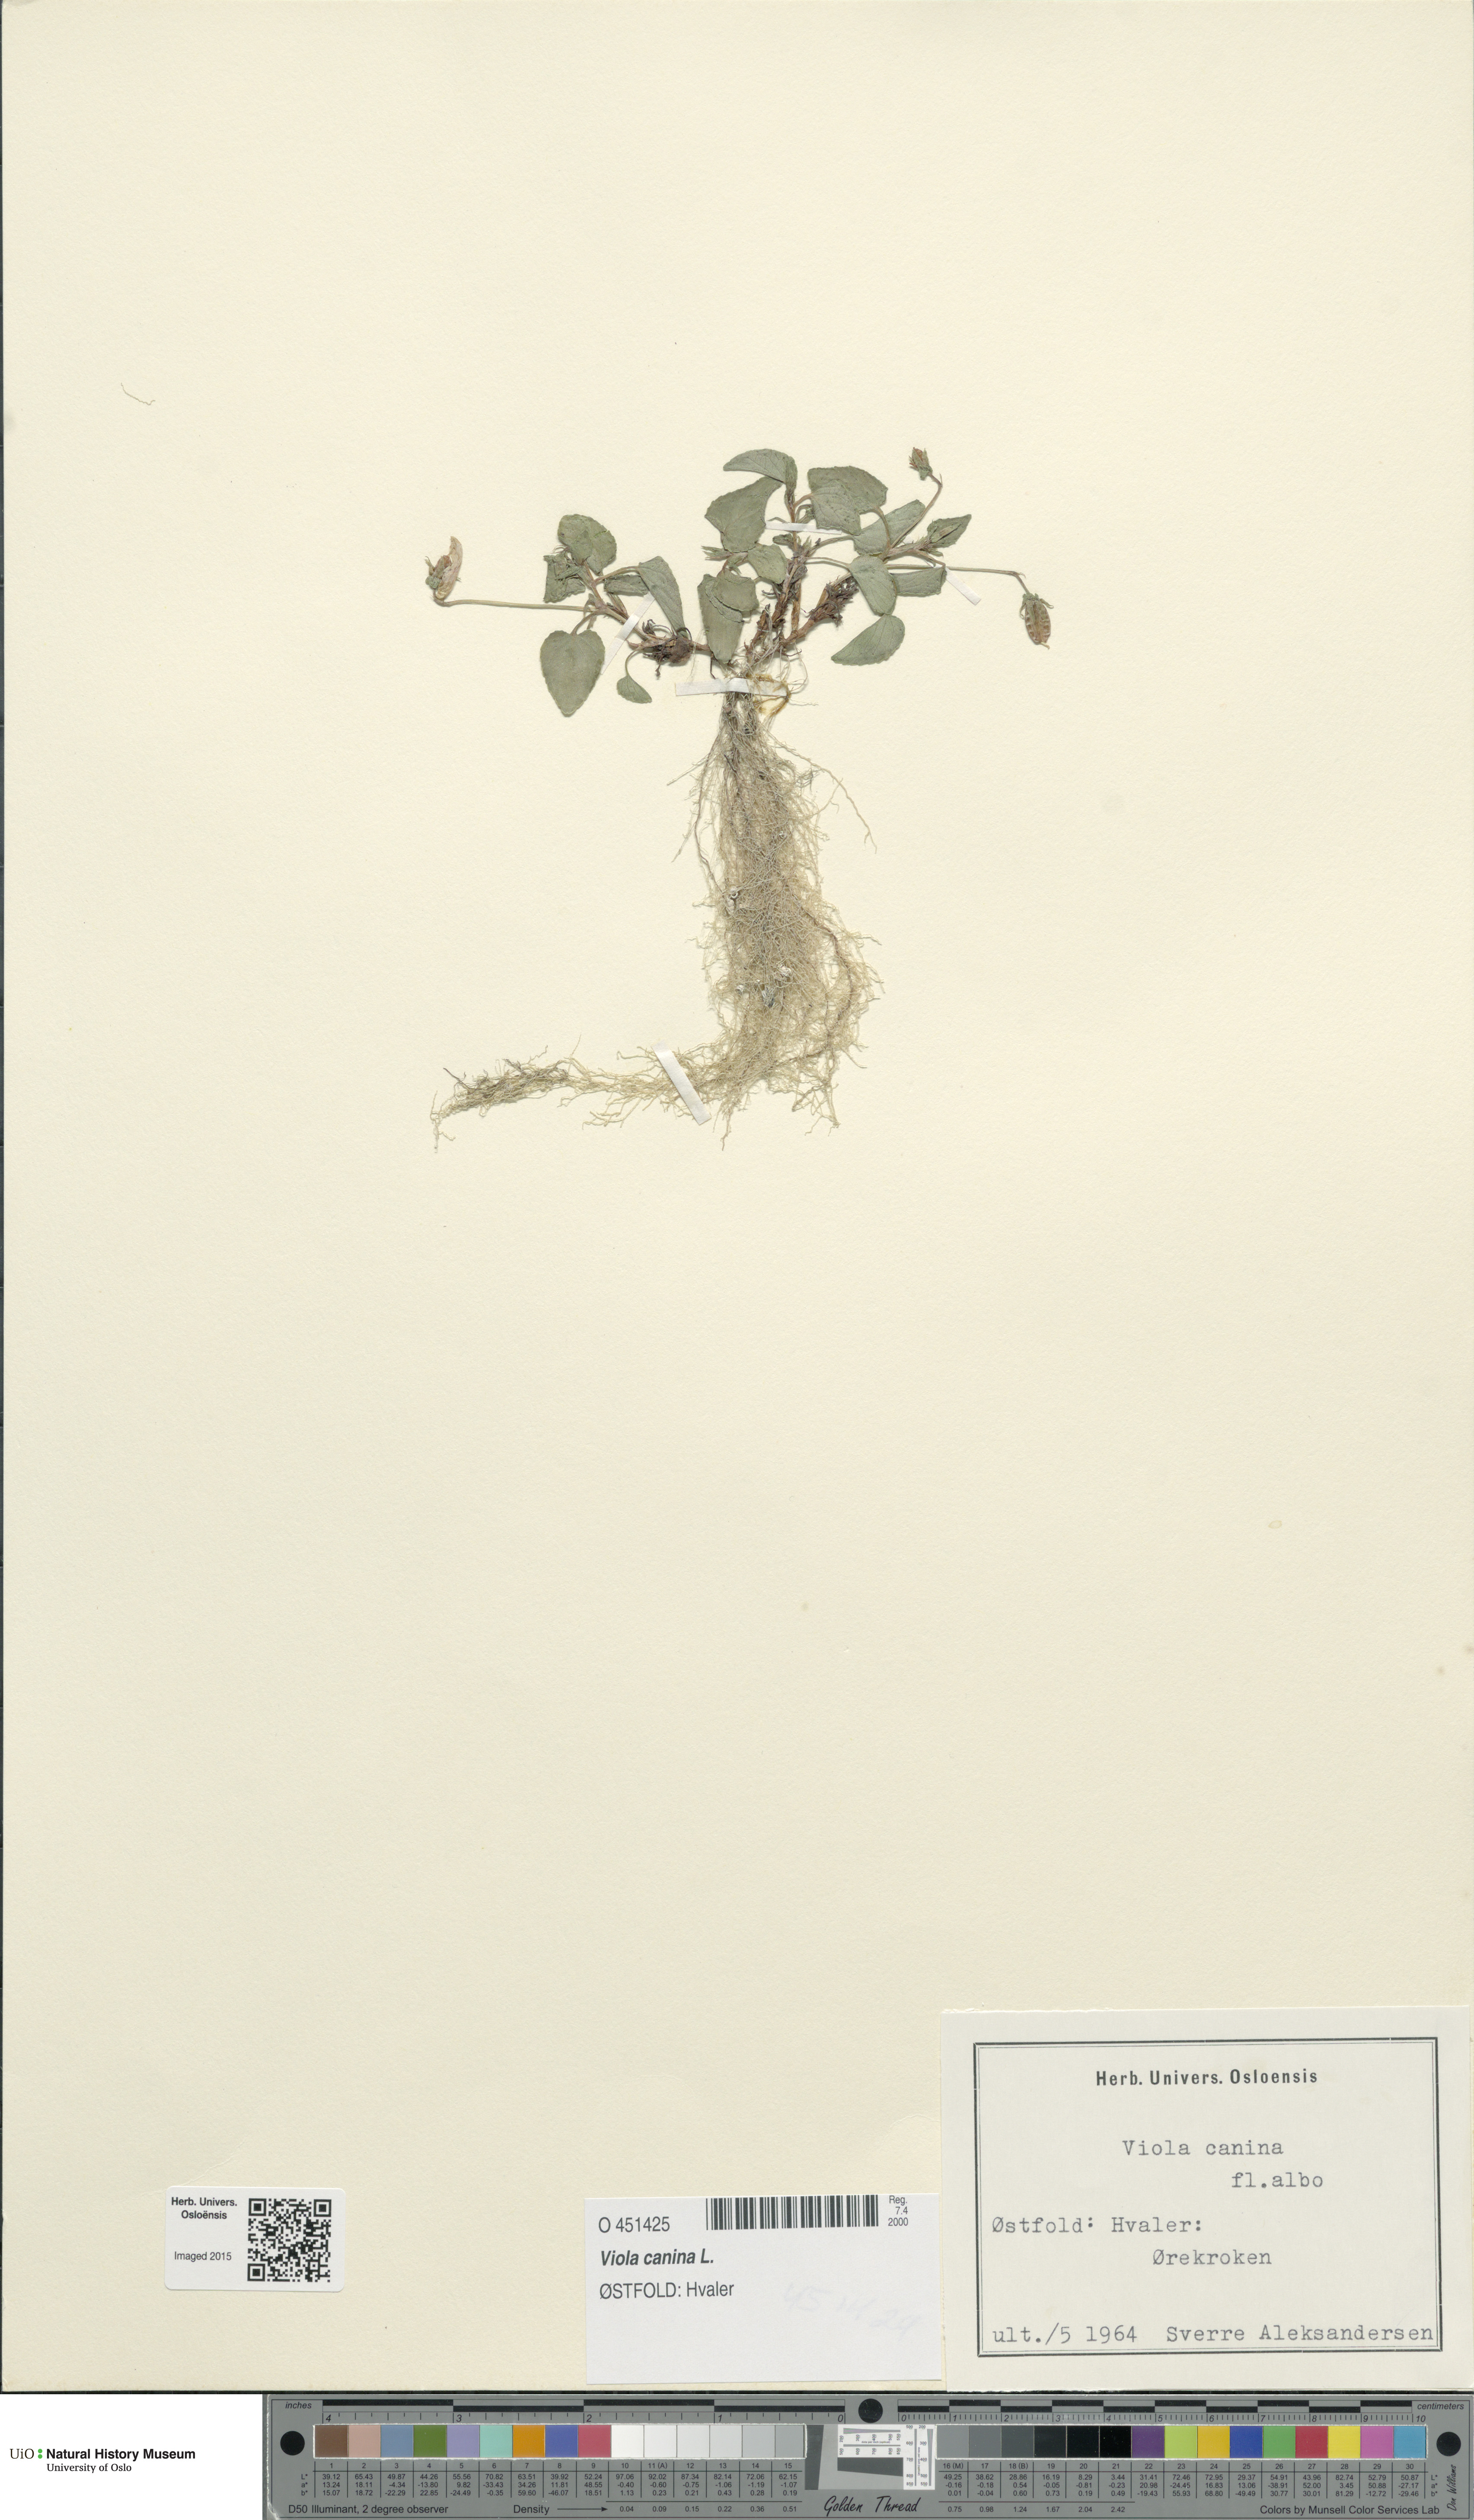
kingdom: Plantae
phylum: Tracheophyta
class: Magnoliopsida
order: Malpighiales
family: Violaceae
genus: Viola
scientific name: Viola canina
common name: Heath dog-violet
